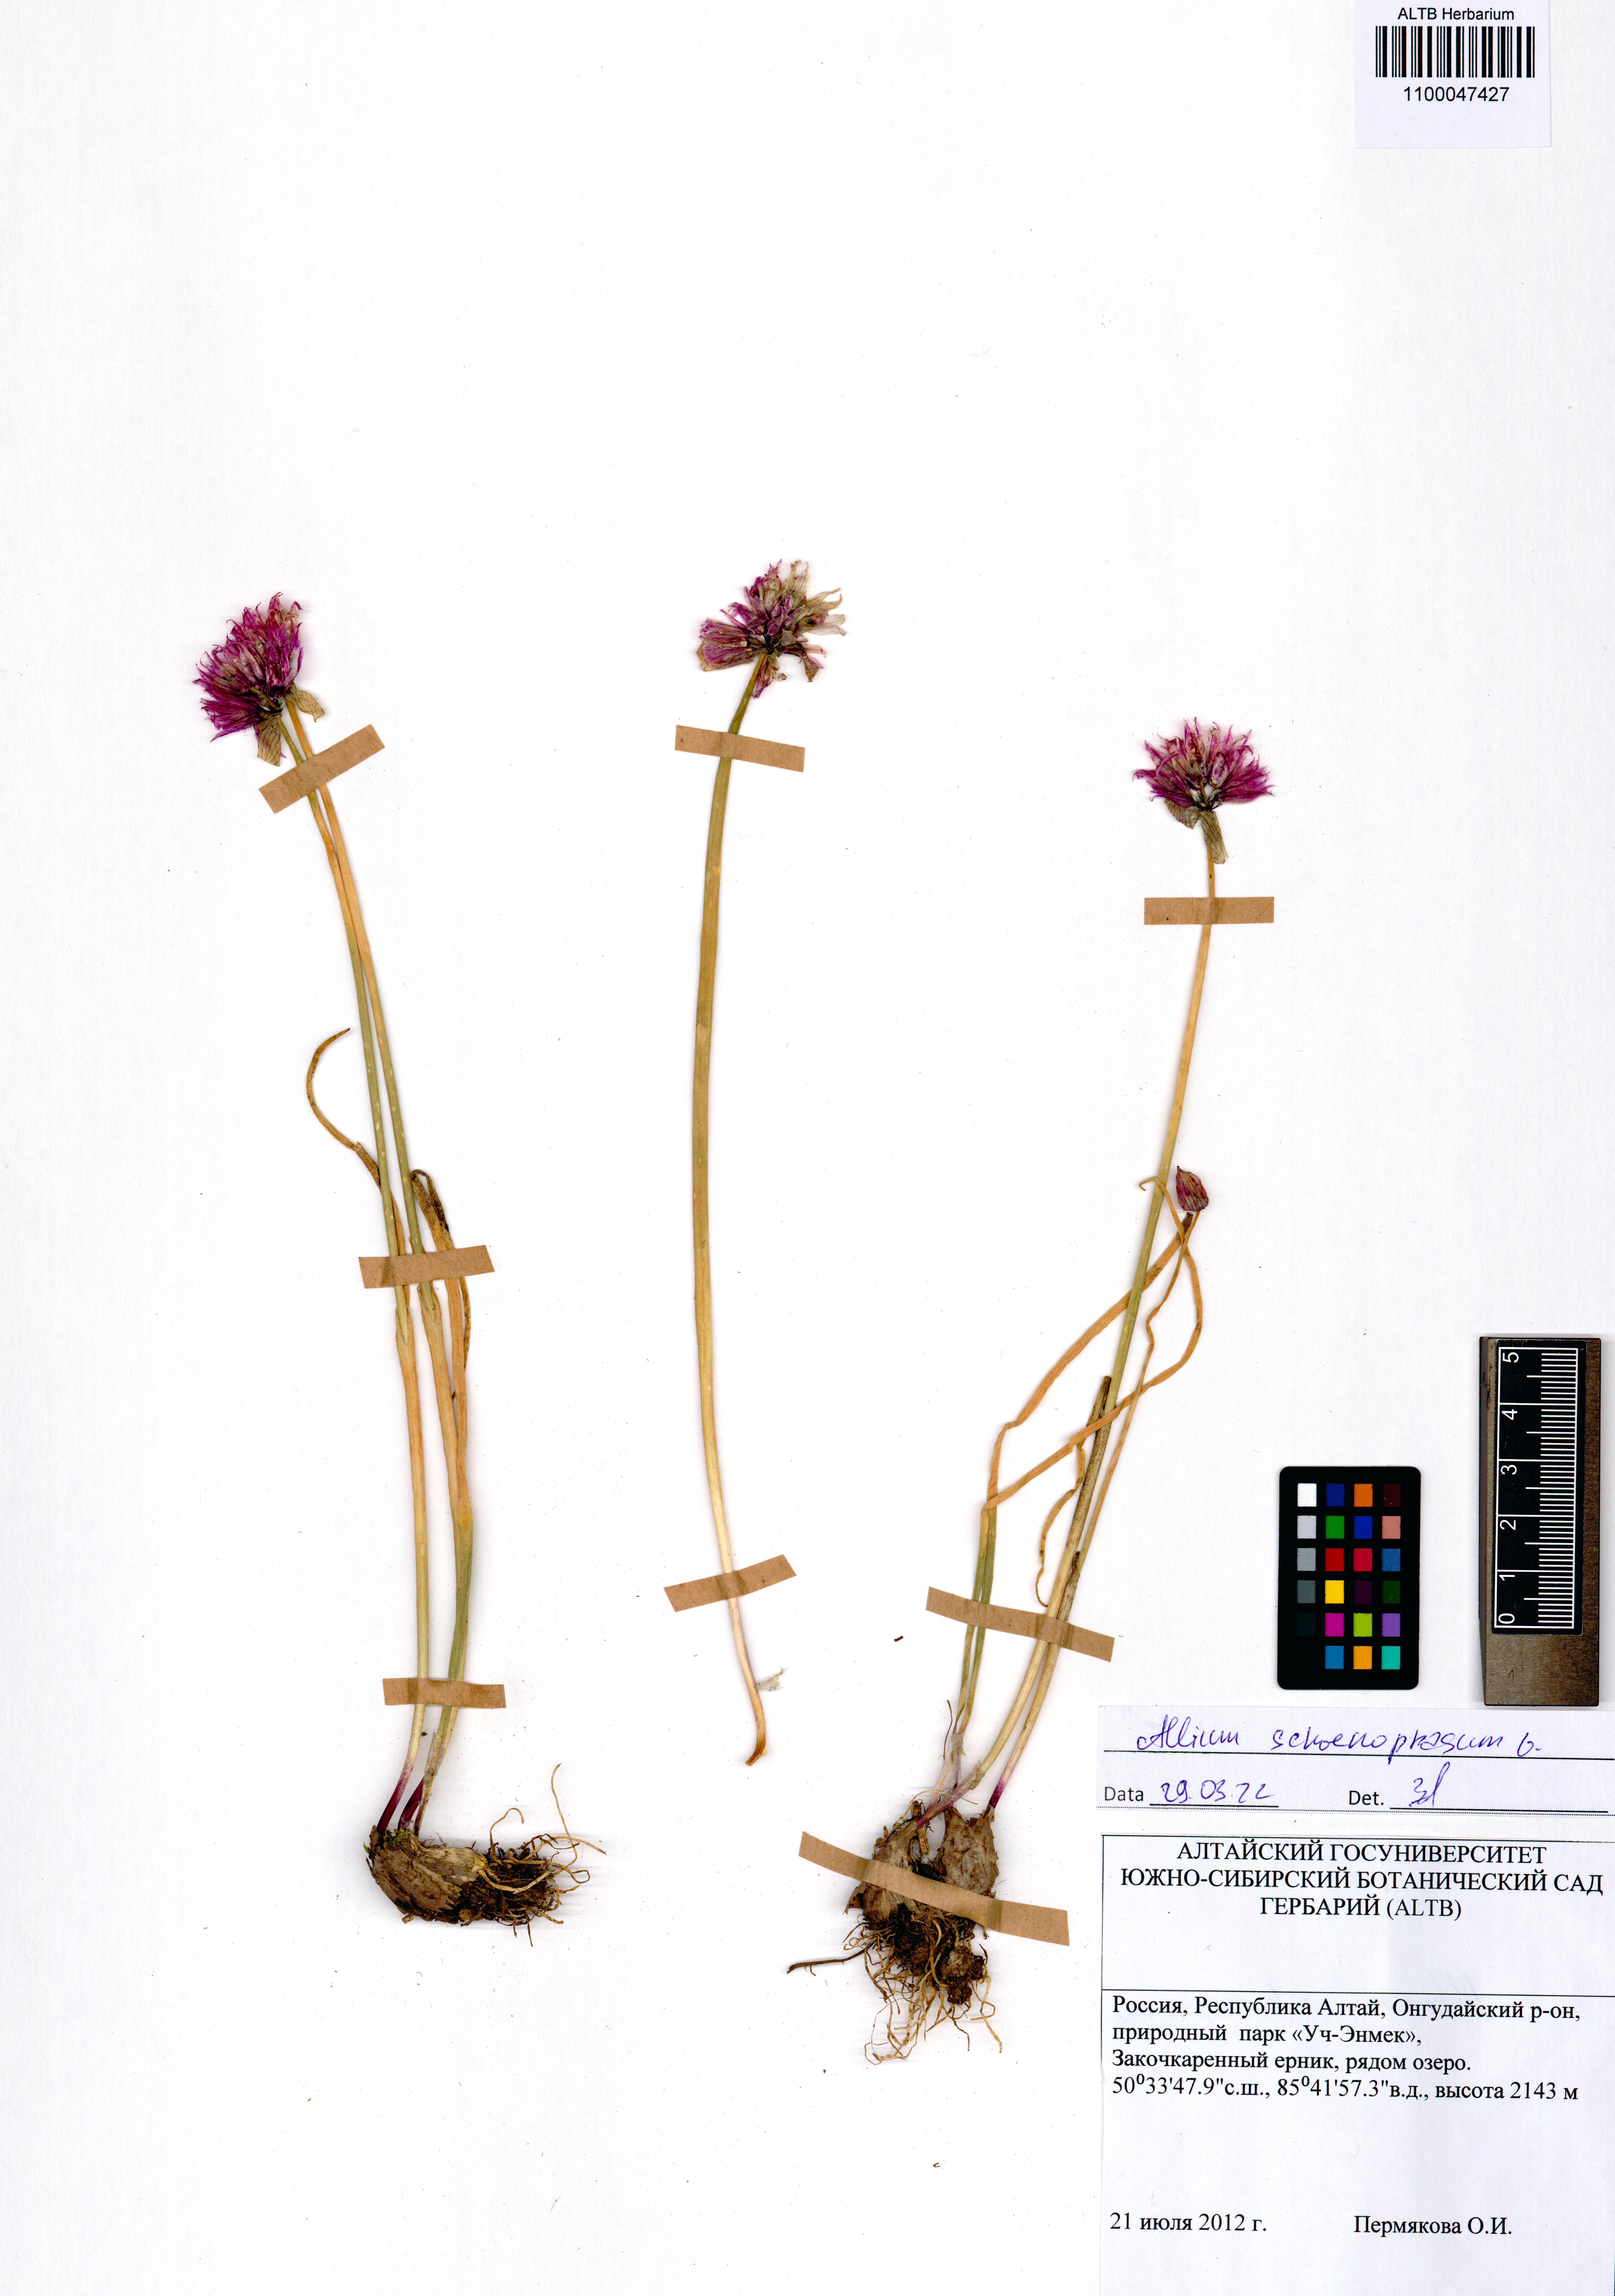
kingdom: Plantae
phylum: Tracheophyta
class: Liliopsida
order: Asparagales
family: Amaryllidaceae
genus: Allium
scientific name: Allium schoenoprasum
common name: Chives
